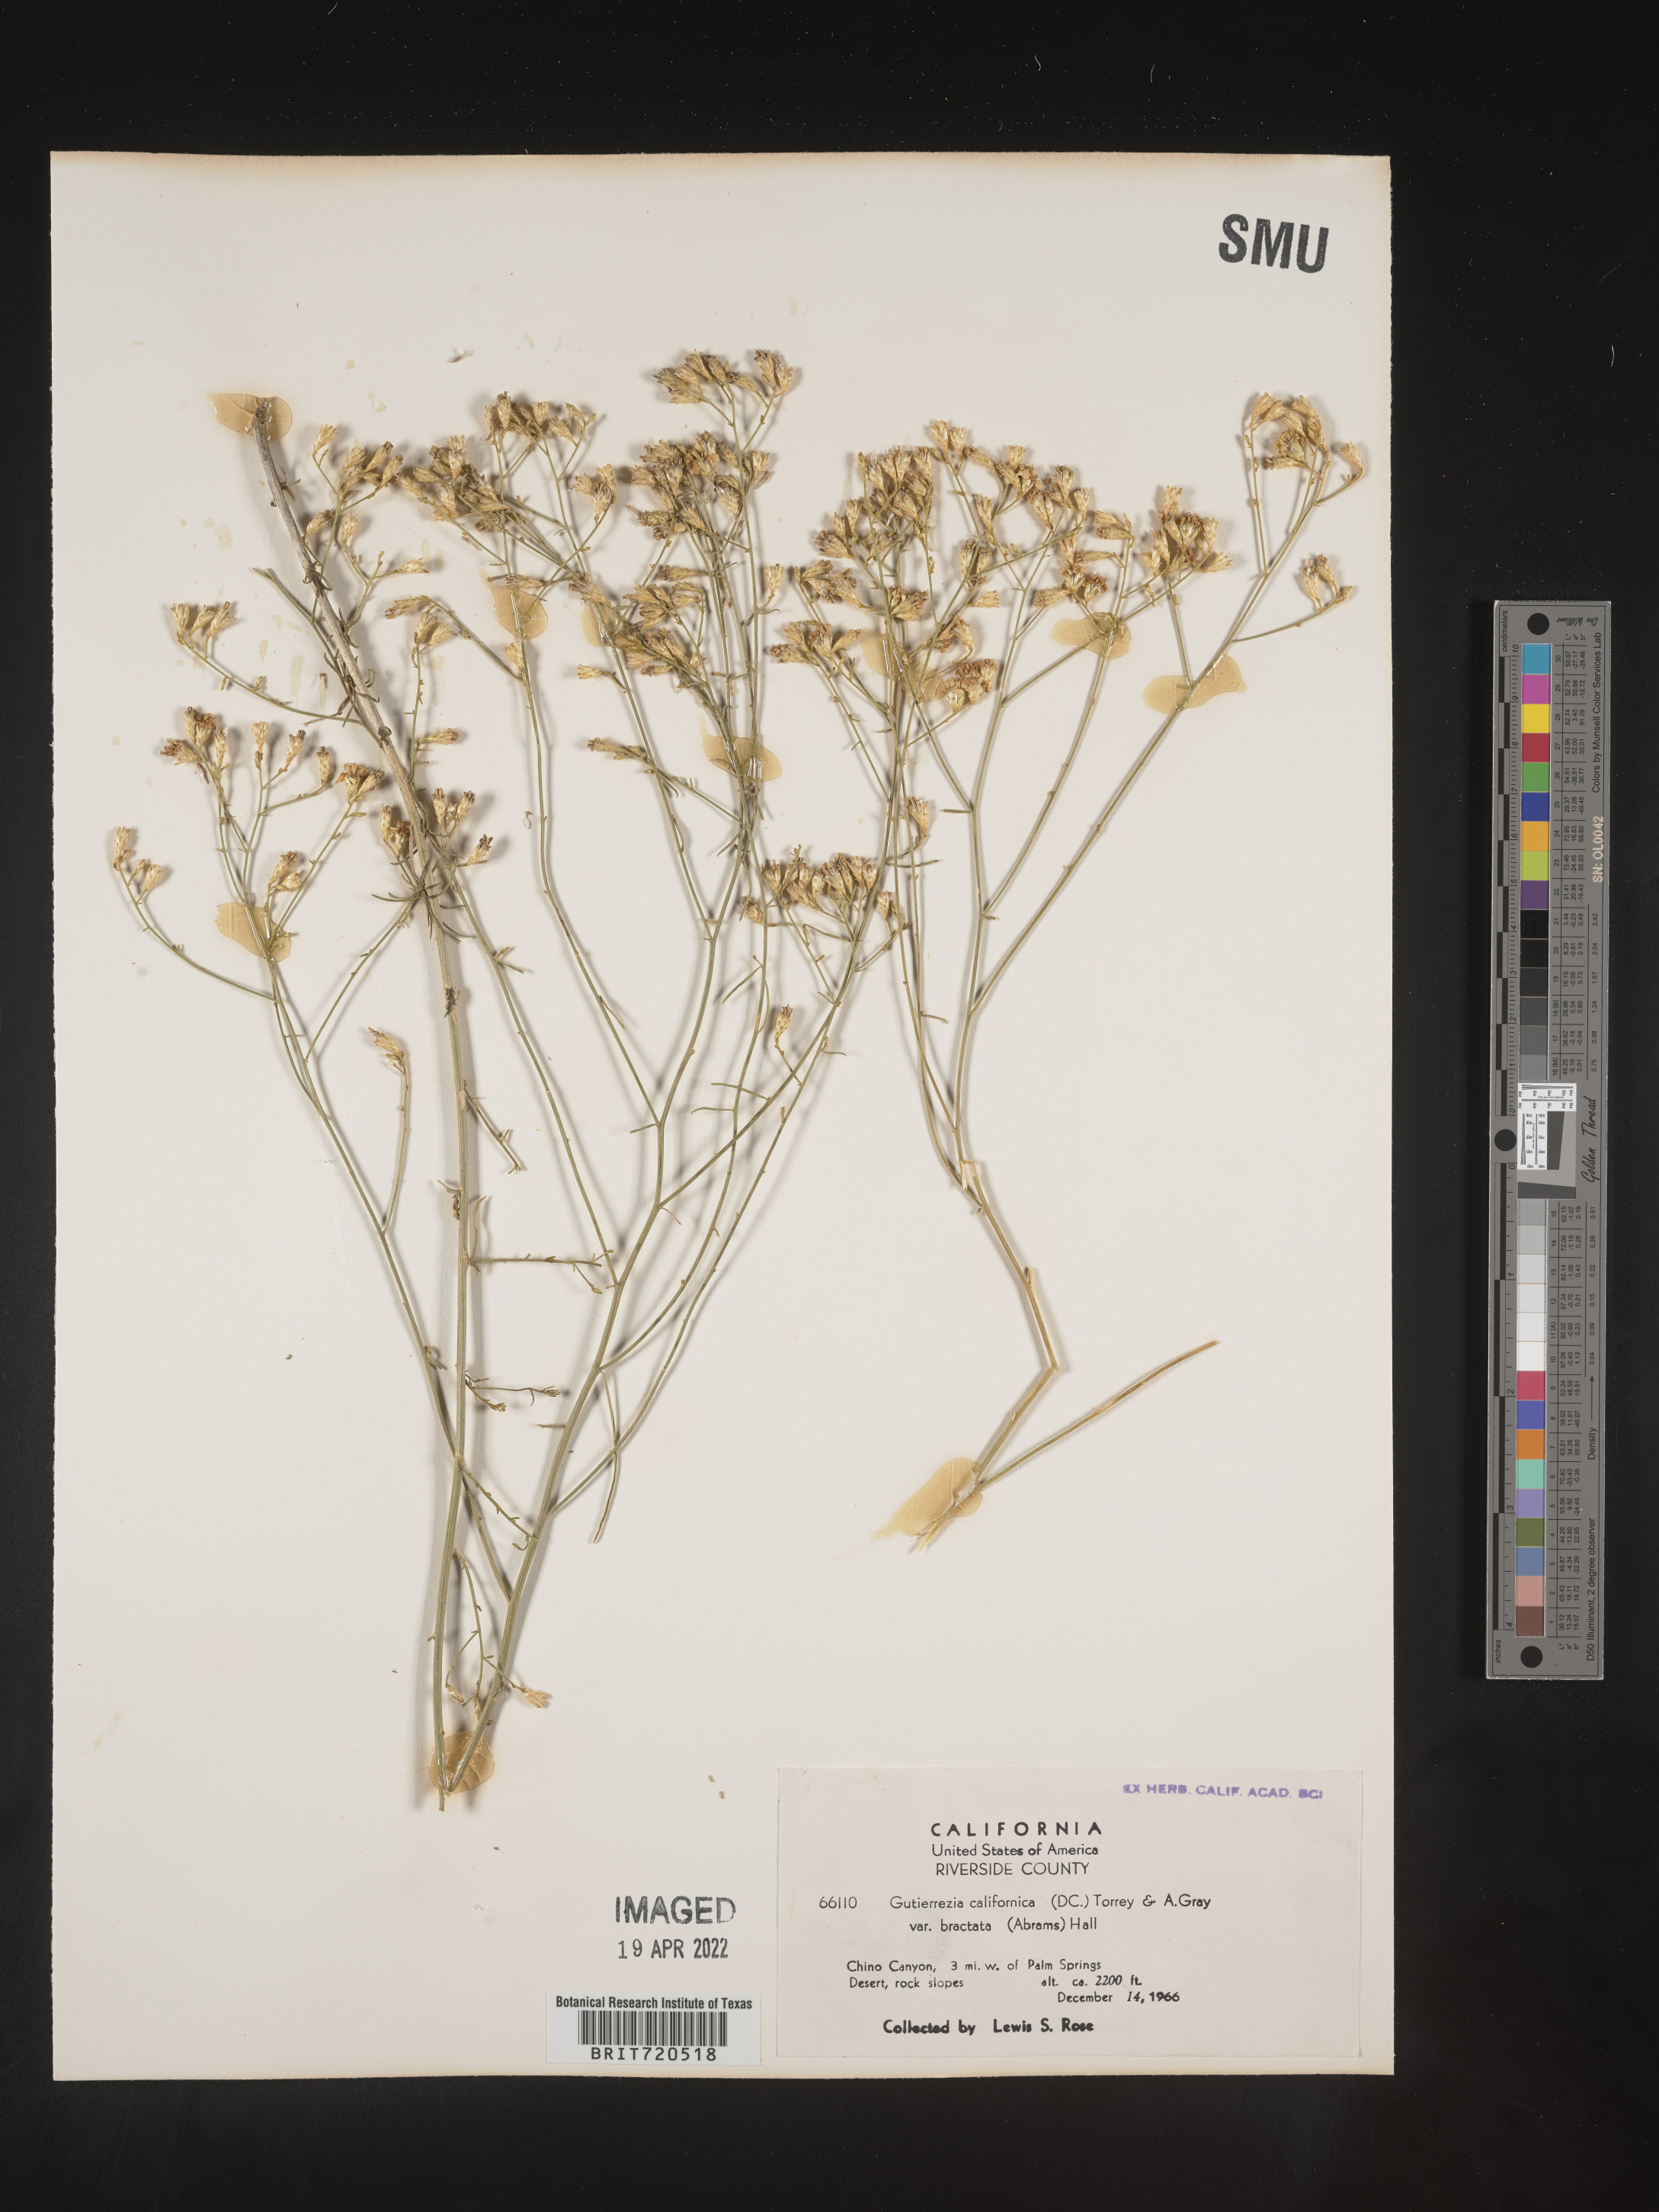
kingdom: Plantae
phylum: Tracheophyta
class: Magnoliopsida
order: Asterales
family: Asteraceae
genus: Gutierrezia
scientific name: Gutierrezia
